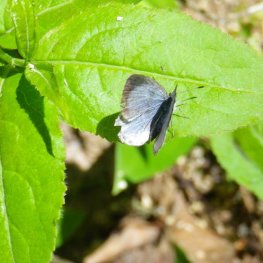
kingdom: Animalia
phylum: Arthropoda
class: Insecta
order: Lepidoptera
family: Lycaenidae
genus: Celastrina
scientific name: Celastrina lucia
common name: Northern Spring Azure
